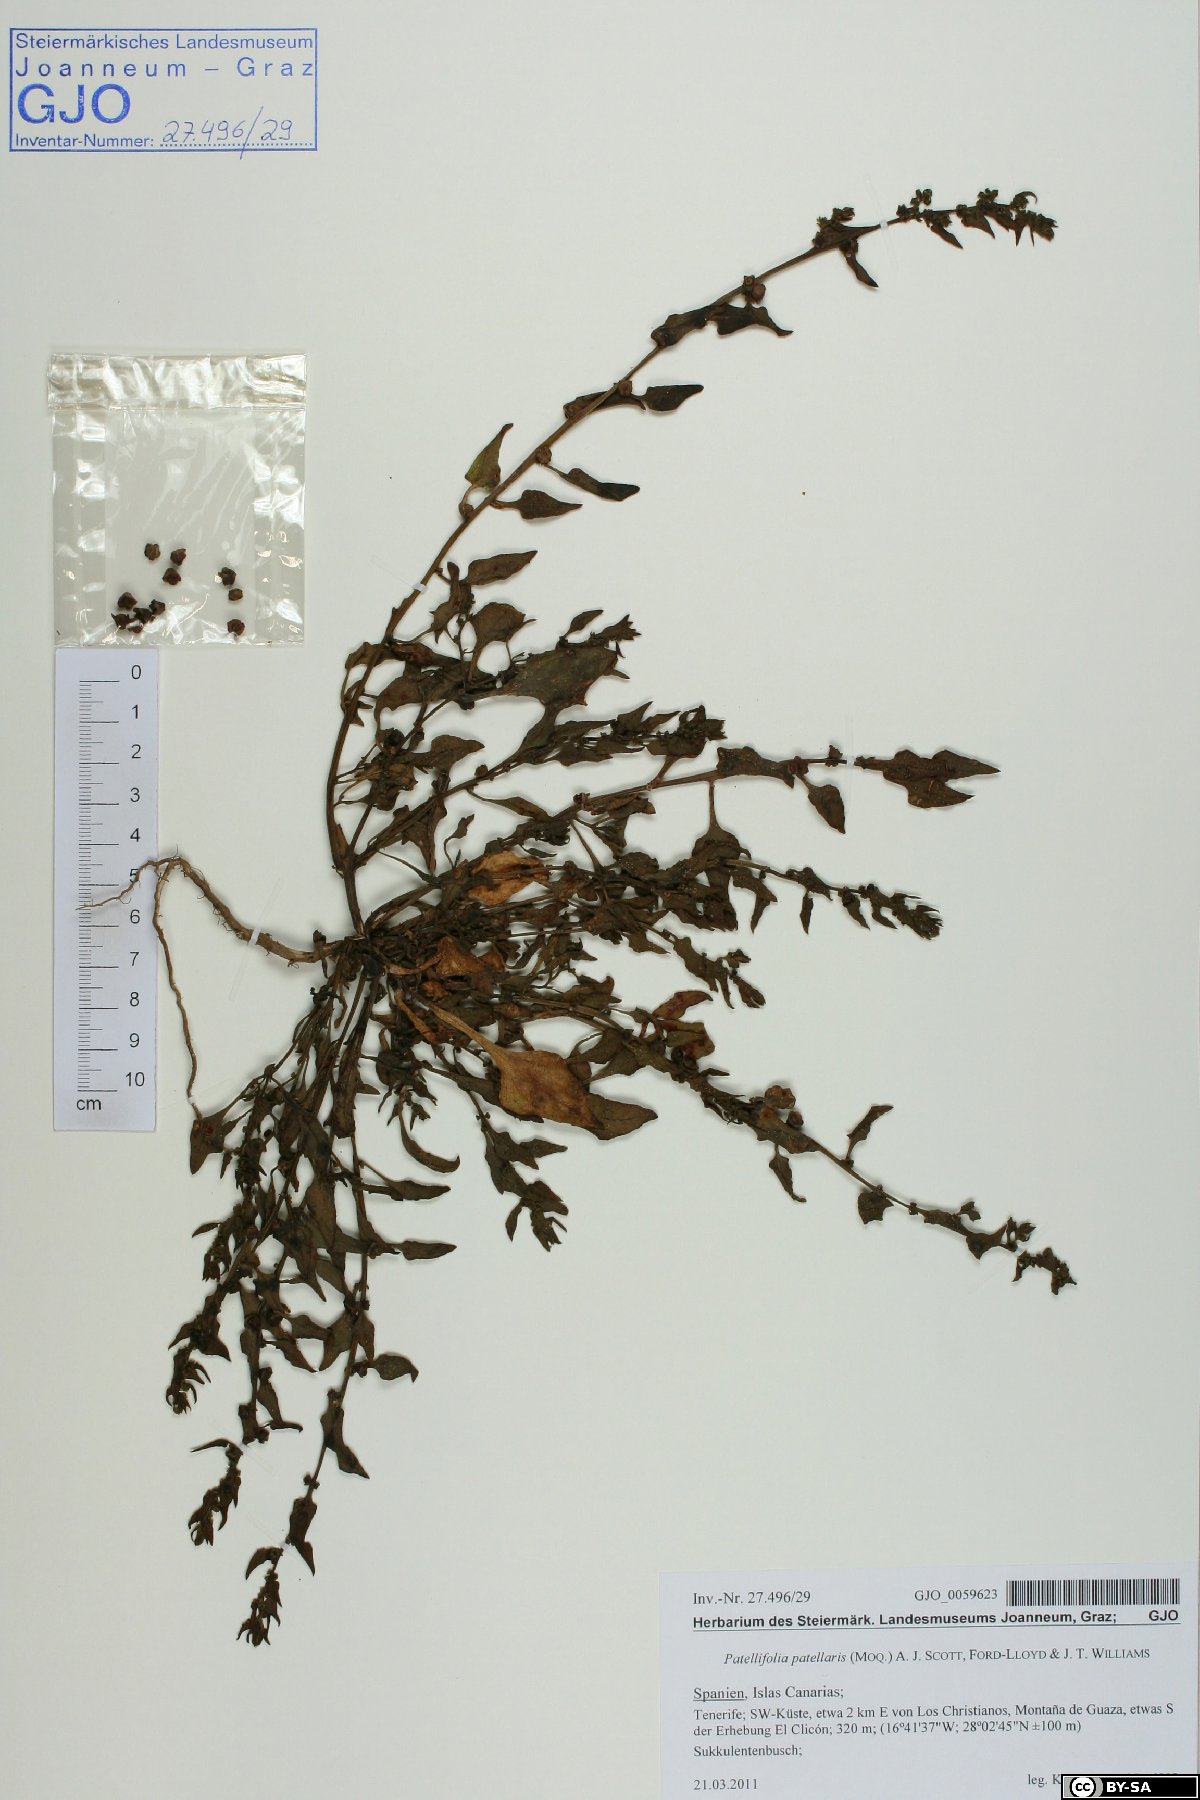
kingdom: Plantae
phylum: Tracheophyta
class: Magnoliopsida
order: Caryophyllales
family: Amaranthaceae
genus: Patellifolia
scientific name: Patellifolia procumbens
